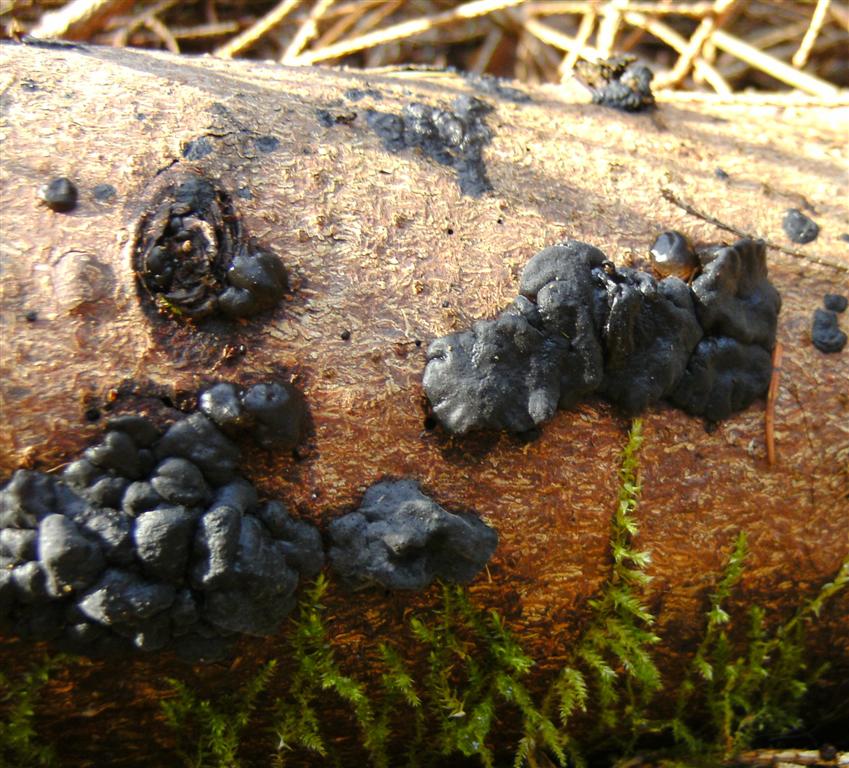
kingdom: Fungi
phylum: Basidiomycota
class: Agaricomycetes
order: Auriculariales
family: Auriculariaceae
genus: Exidia
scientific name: Exidia pithya
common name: gran-bævretop
